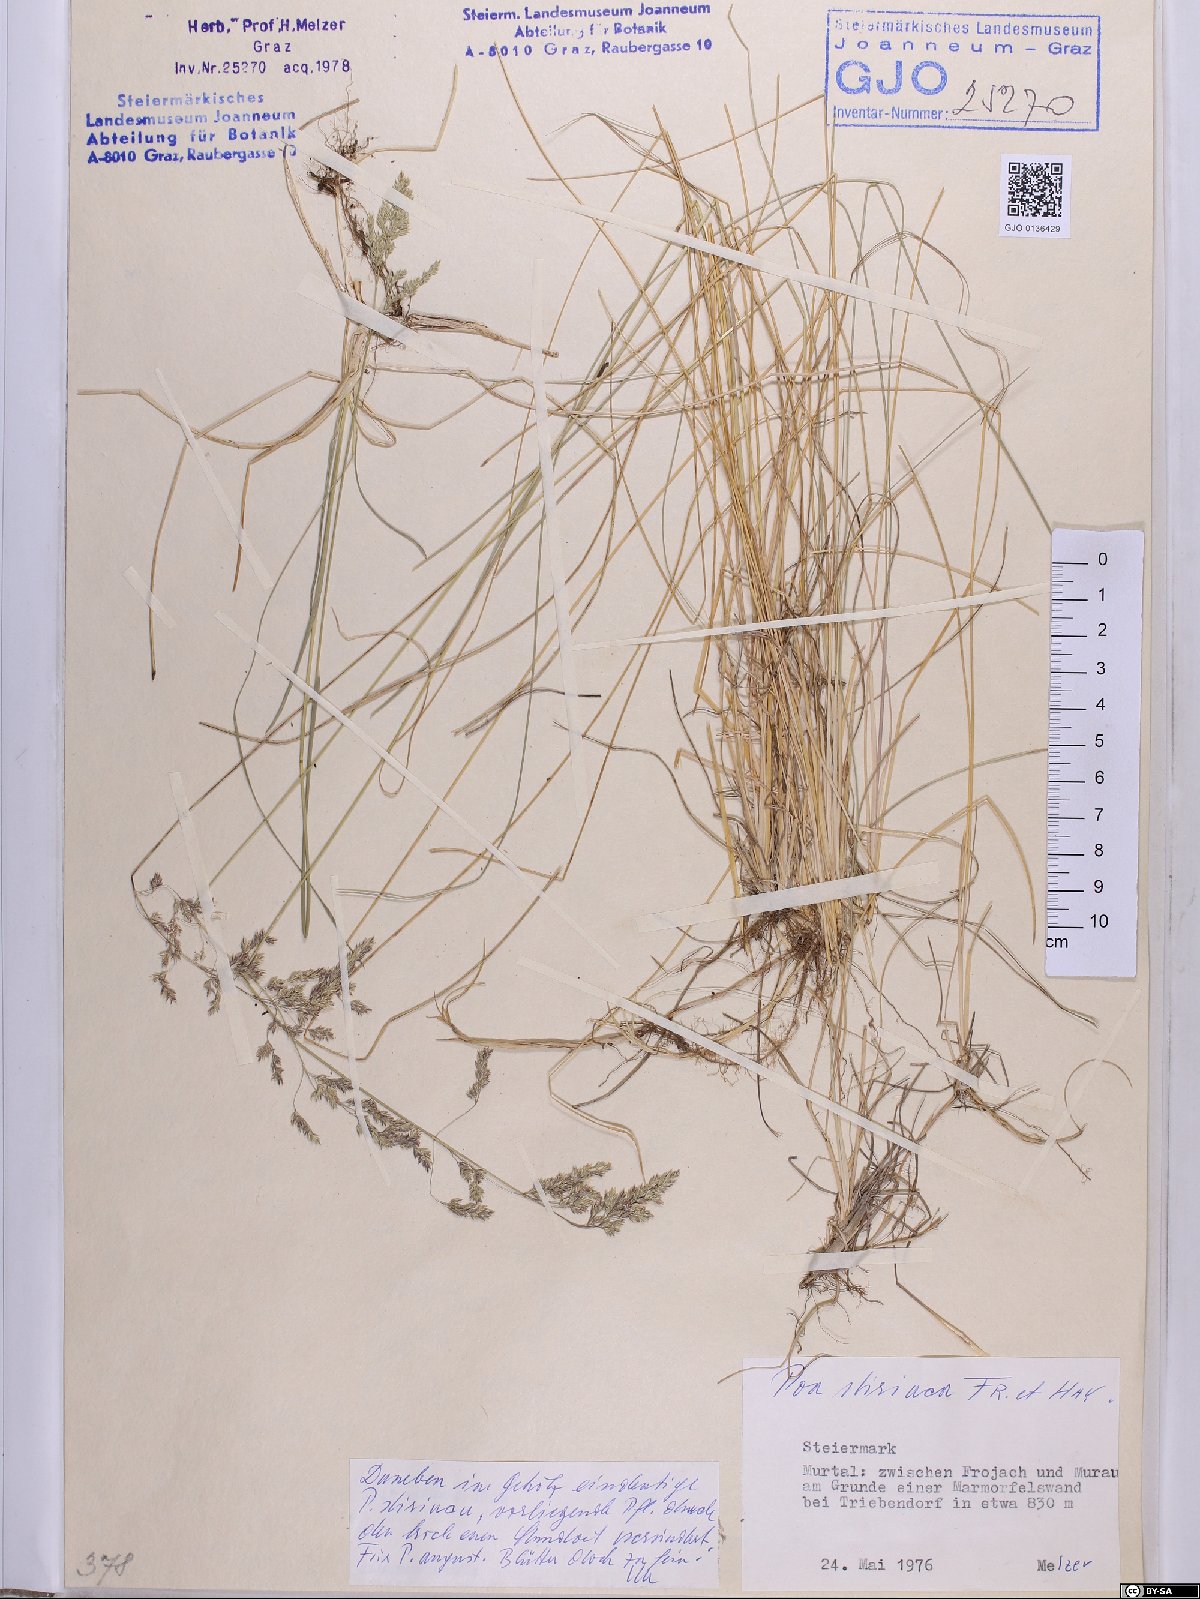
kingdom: Plantae
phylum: Tracheophyta
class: Liliopsida
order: Poales
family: Poaceae
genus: Poa
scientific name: Poa stiriaca
